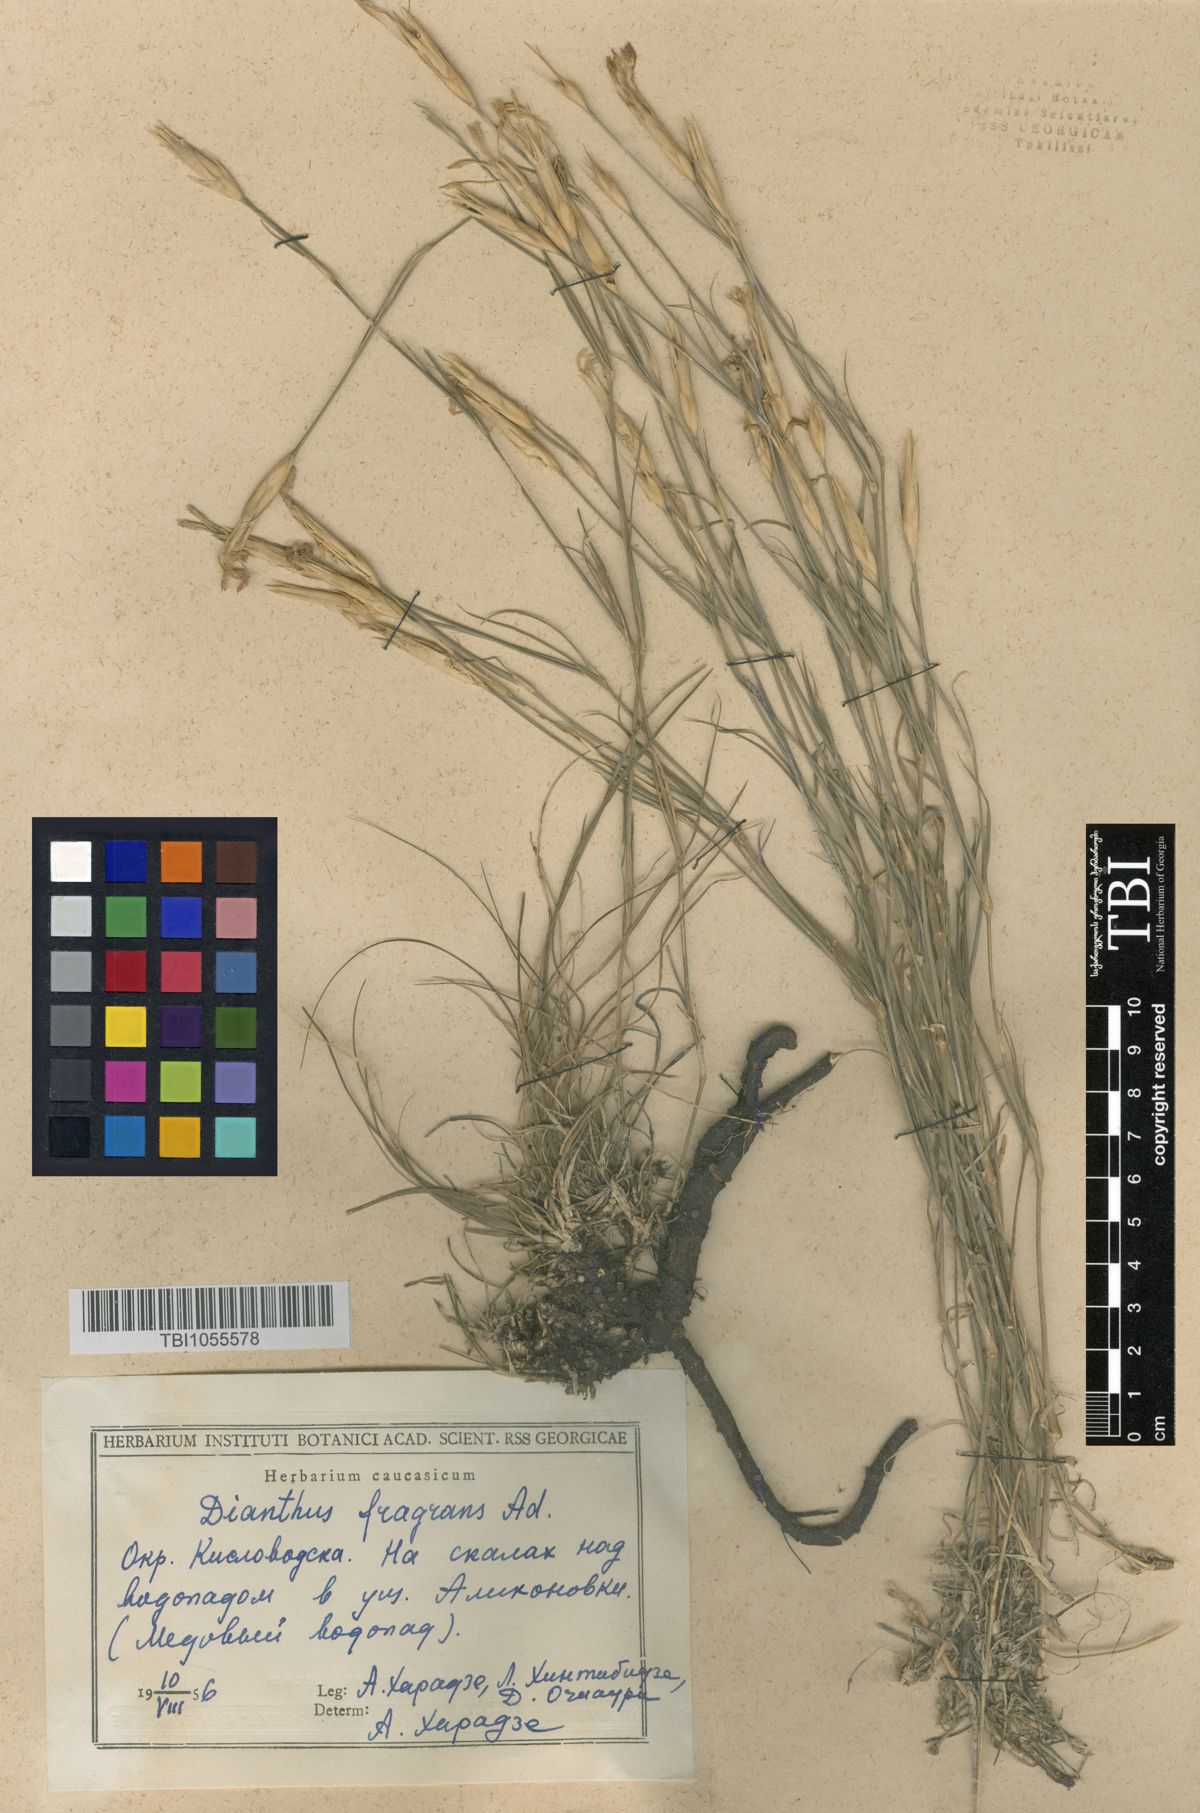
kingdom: Plantae
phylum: Tracheophyta
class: Magnoliopsida
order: Caryophyllales
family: Caryophyllaceae
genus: Dianthus
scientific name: Dianthus
